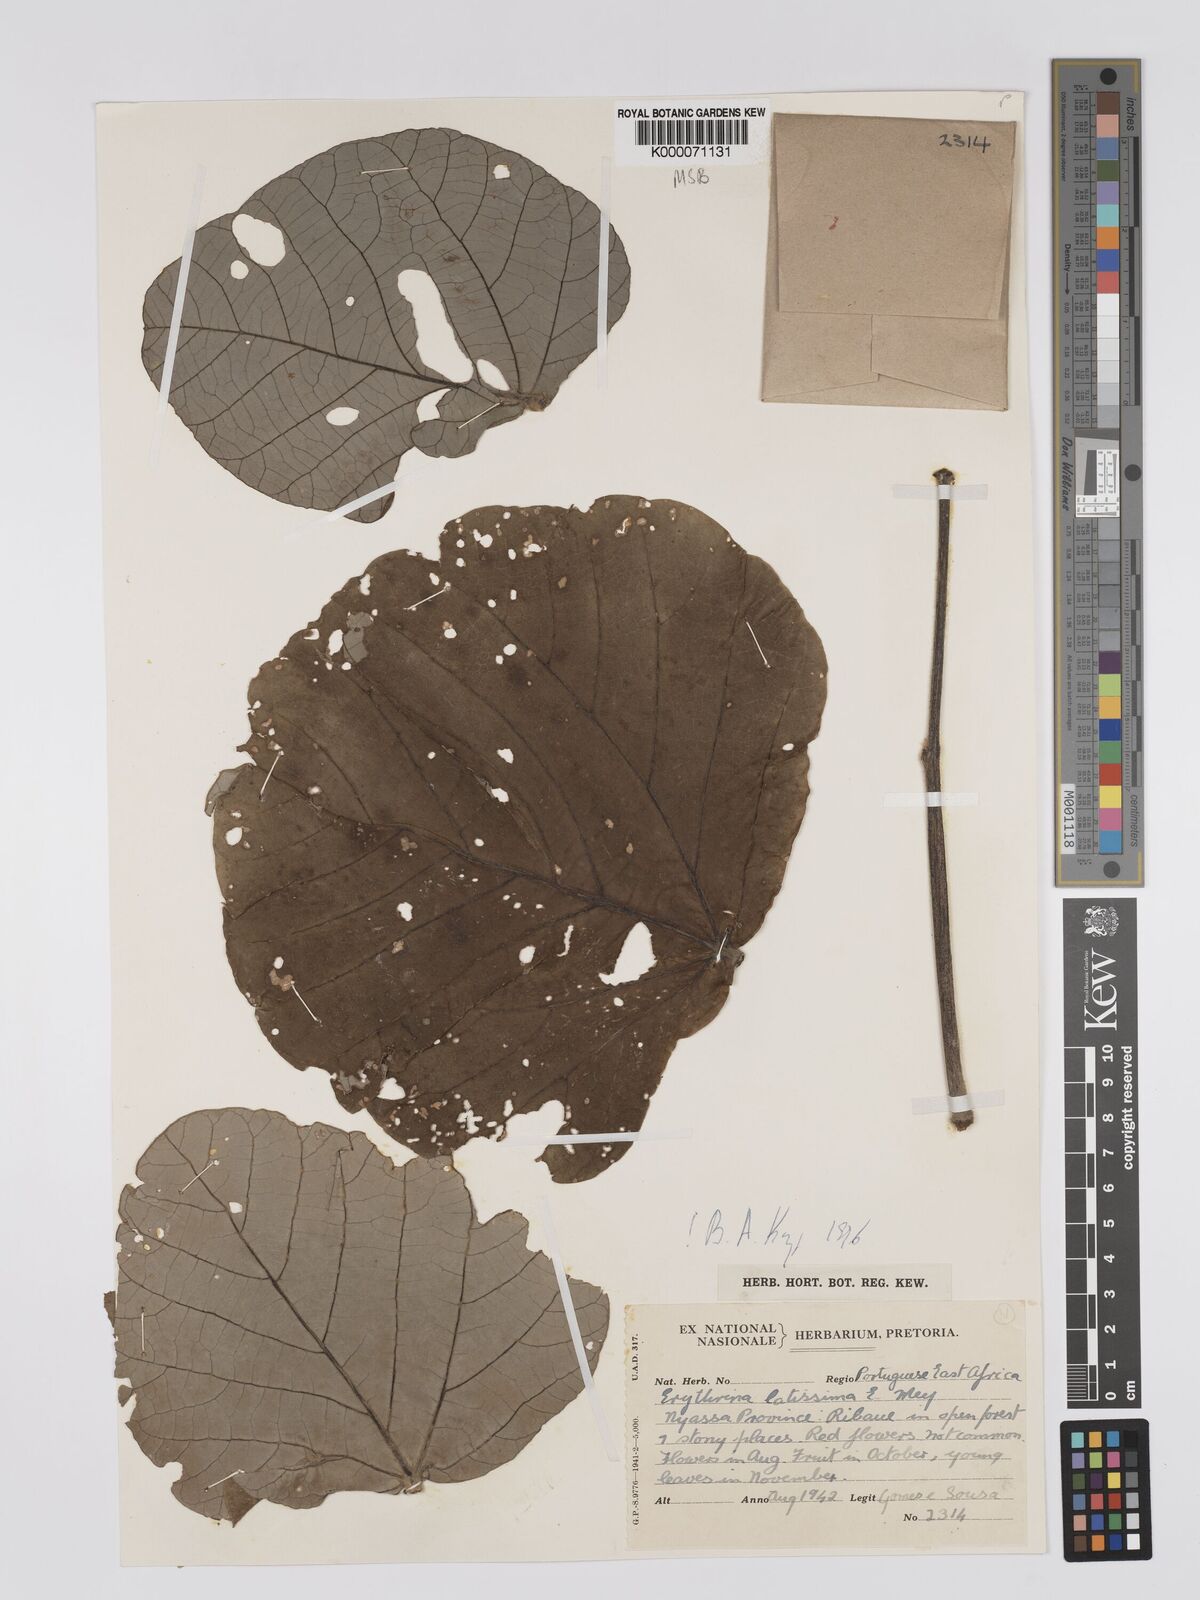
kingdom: Plantae
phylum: Tracheophyta
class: Magnoliopsida
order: Fabales
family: Fabaceae
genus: Erythrina
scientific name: Erythrina latissima
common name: Broad-leaved coral tree
